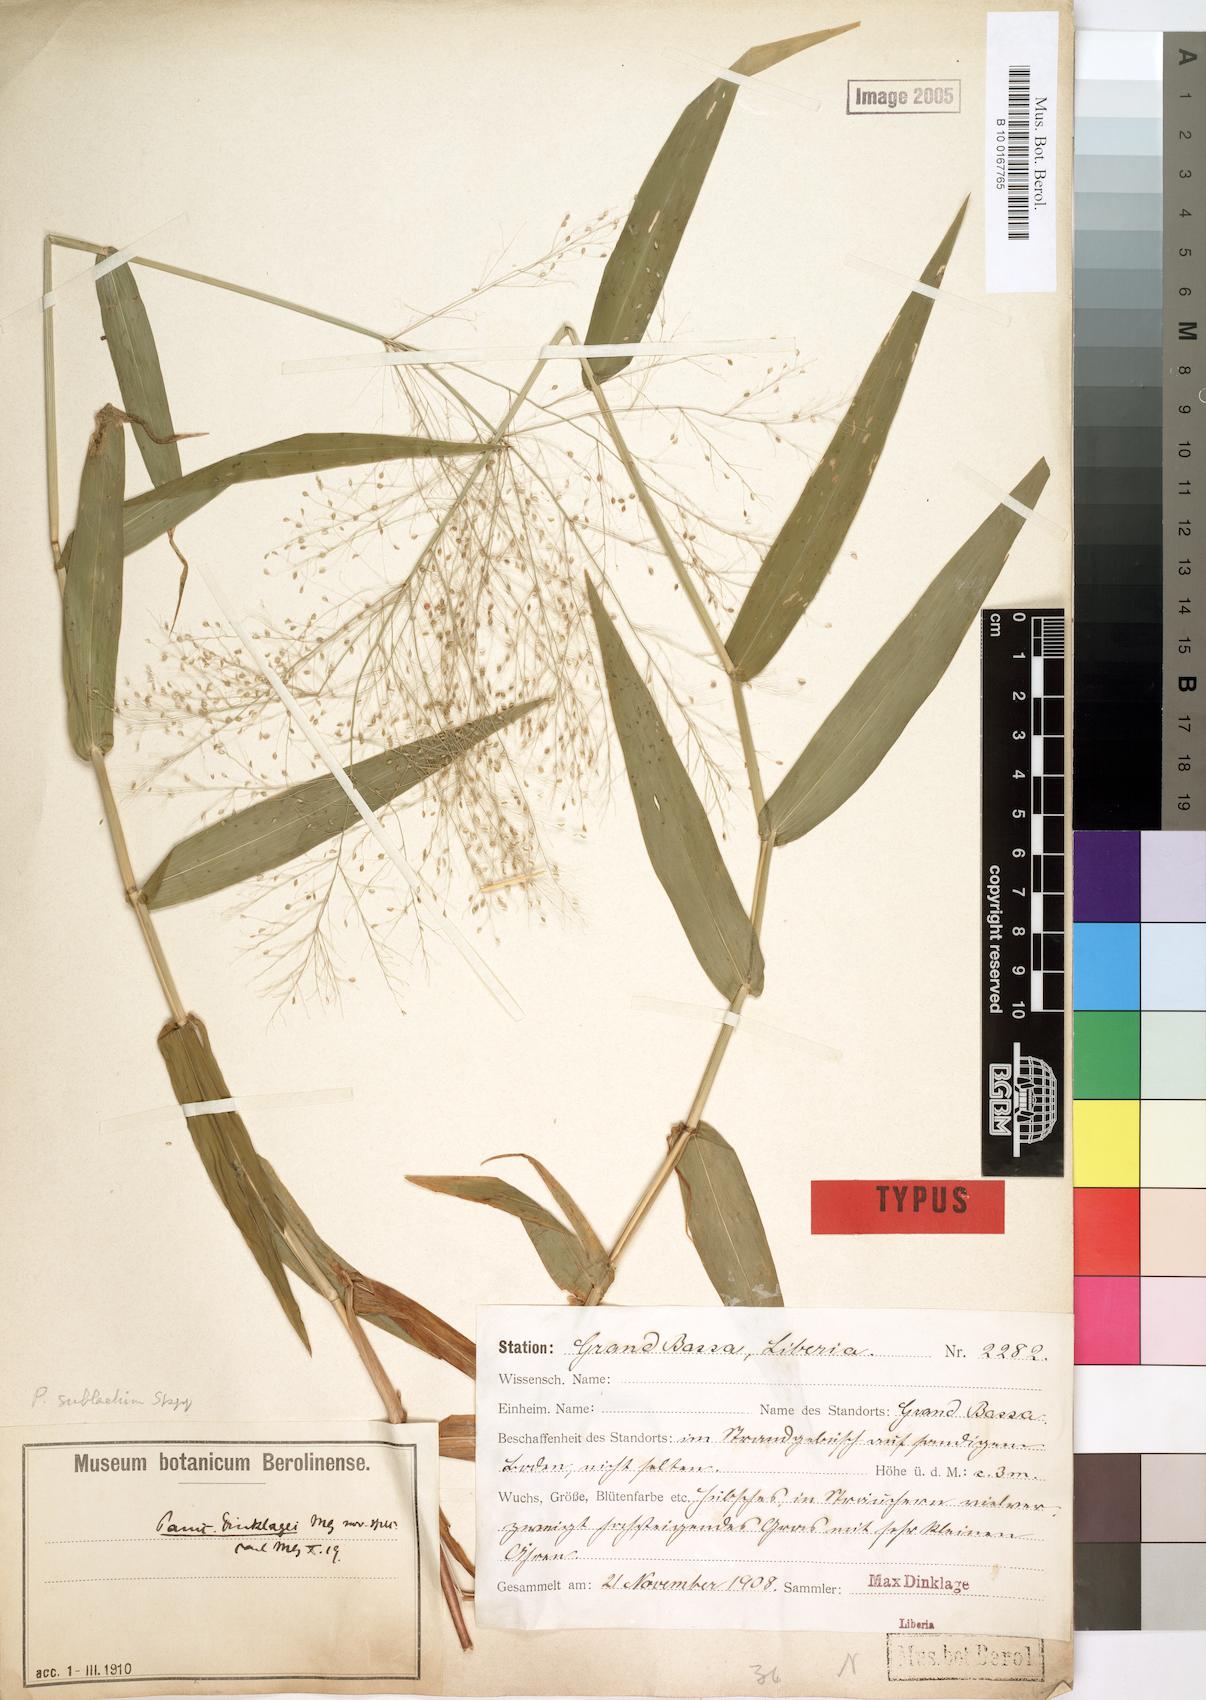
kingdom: Plantae
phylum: Tracheophyta
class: Liliopsida
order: Poales
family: Poaceae
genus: Trichanthecium
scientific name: Trichanthecium dinklagei
